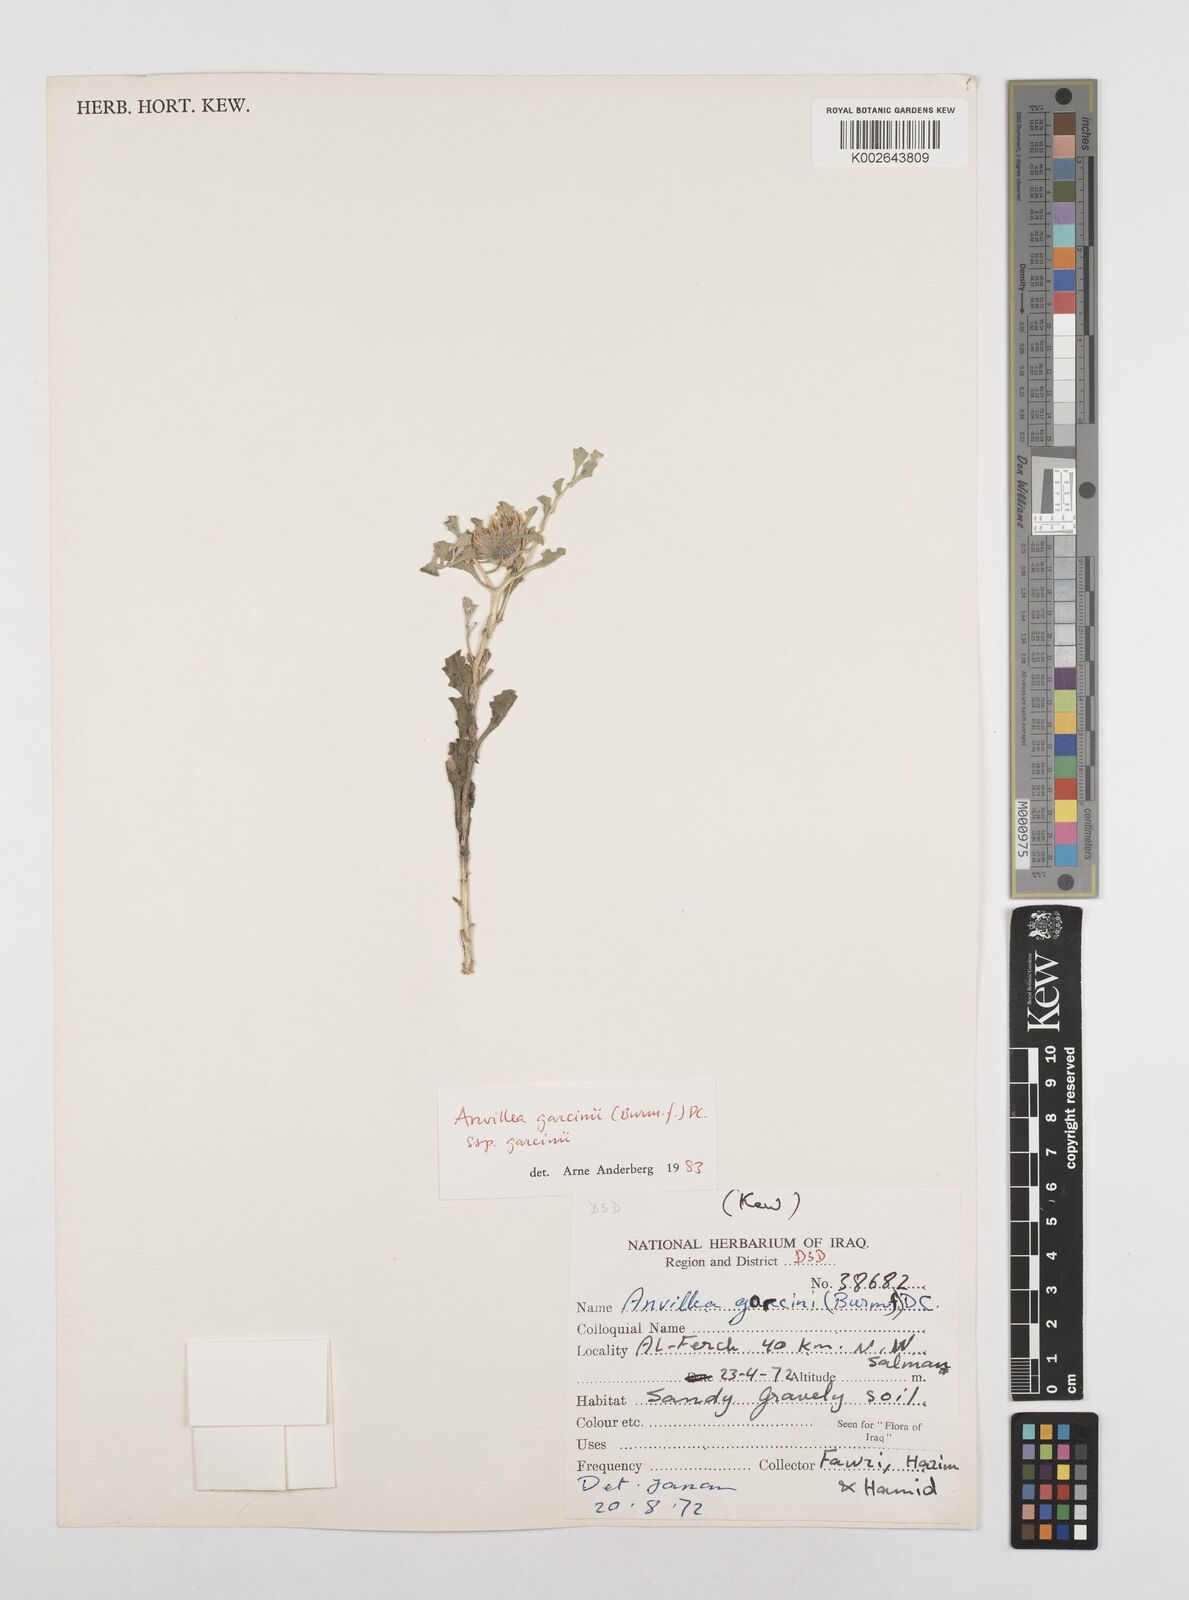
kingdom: Plantae
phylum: Tracheophyta
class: Magnoliopsida
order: Asterales
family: Asteraceae
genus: Anvillea
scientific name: Anvillea garcinii
